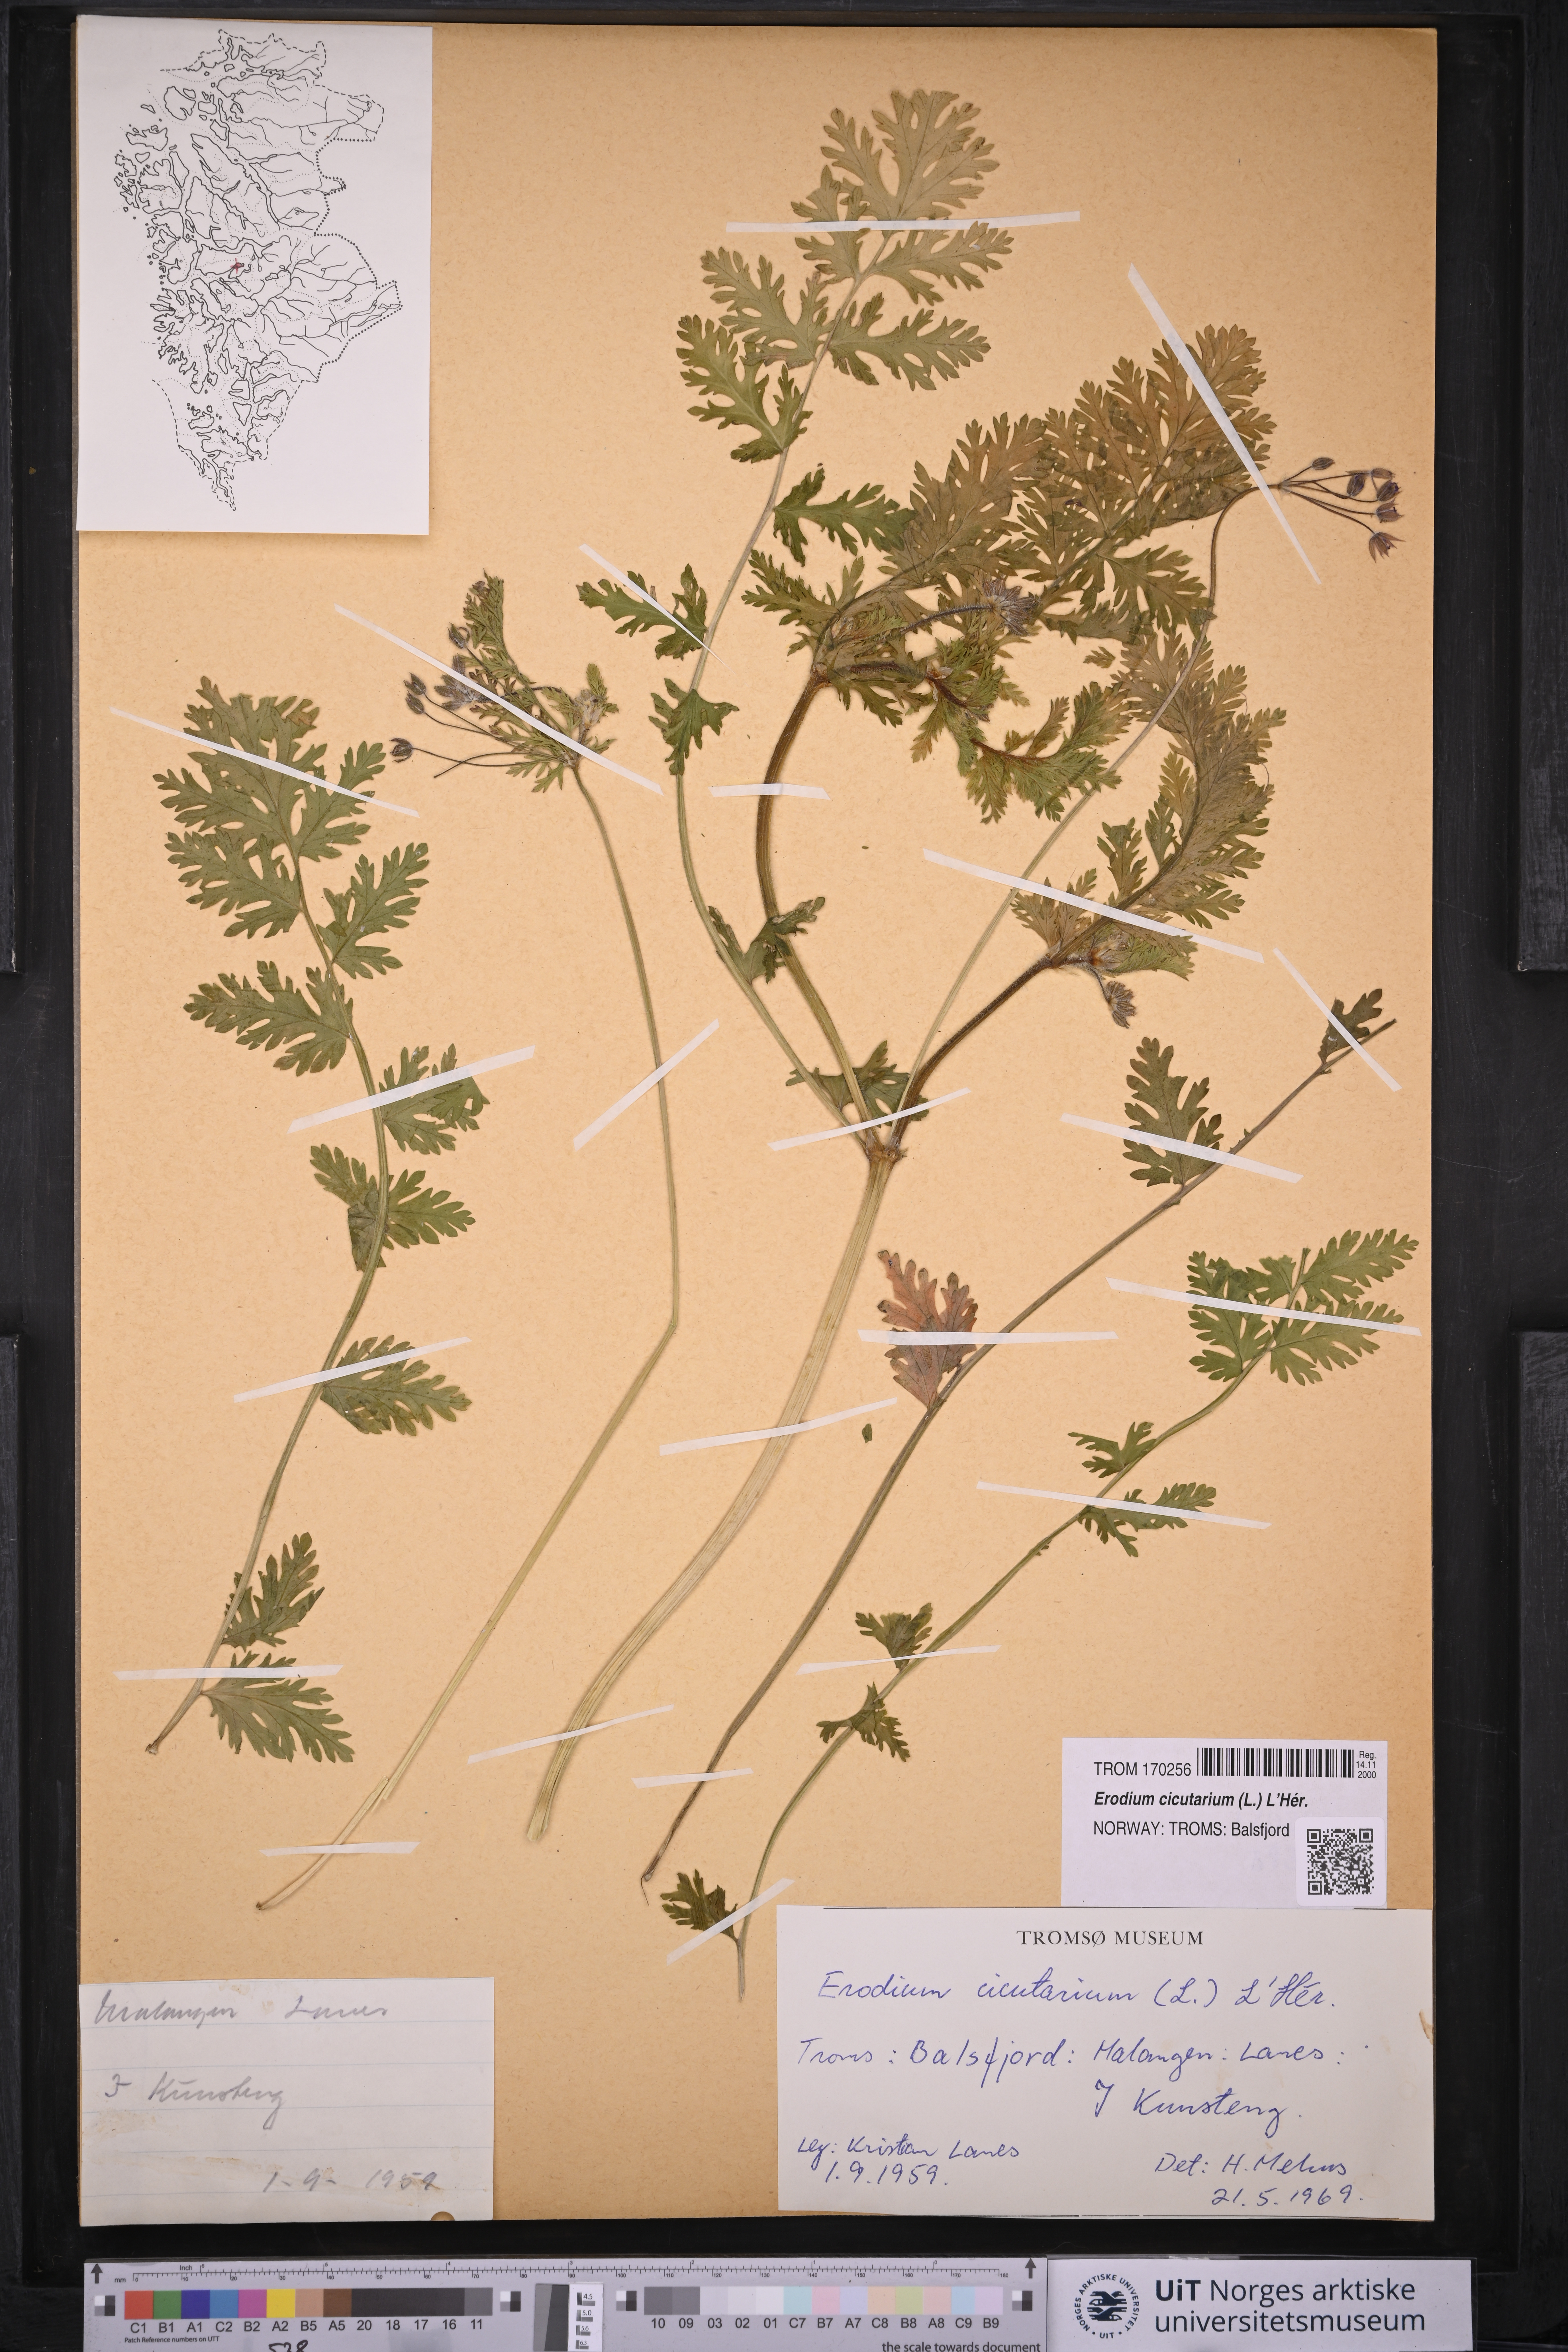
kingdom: Plantae
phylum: Tracheophyta
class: Magnoliopsida
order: Geraniales
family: Geraniaceae
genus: Erodium
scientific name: Erodium cicutarium
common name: Common stork's-bill
